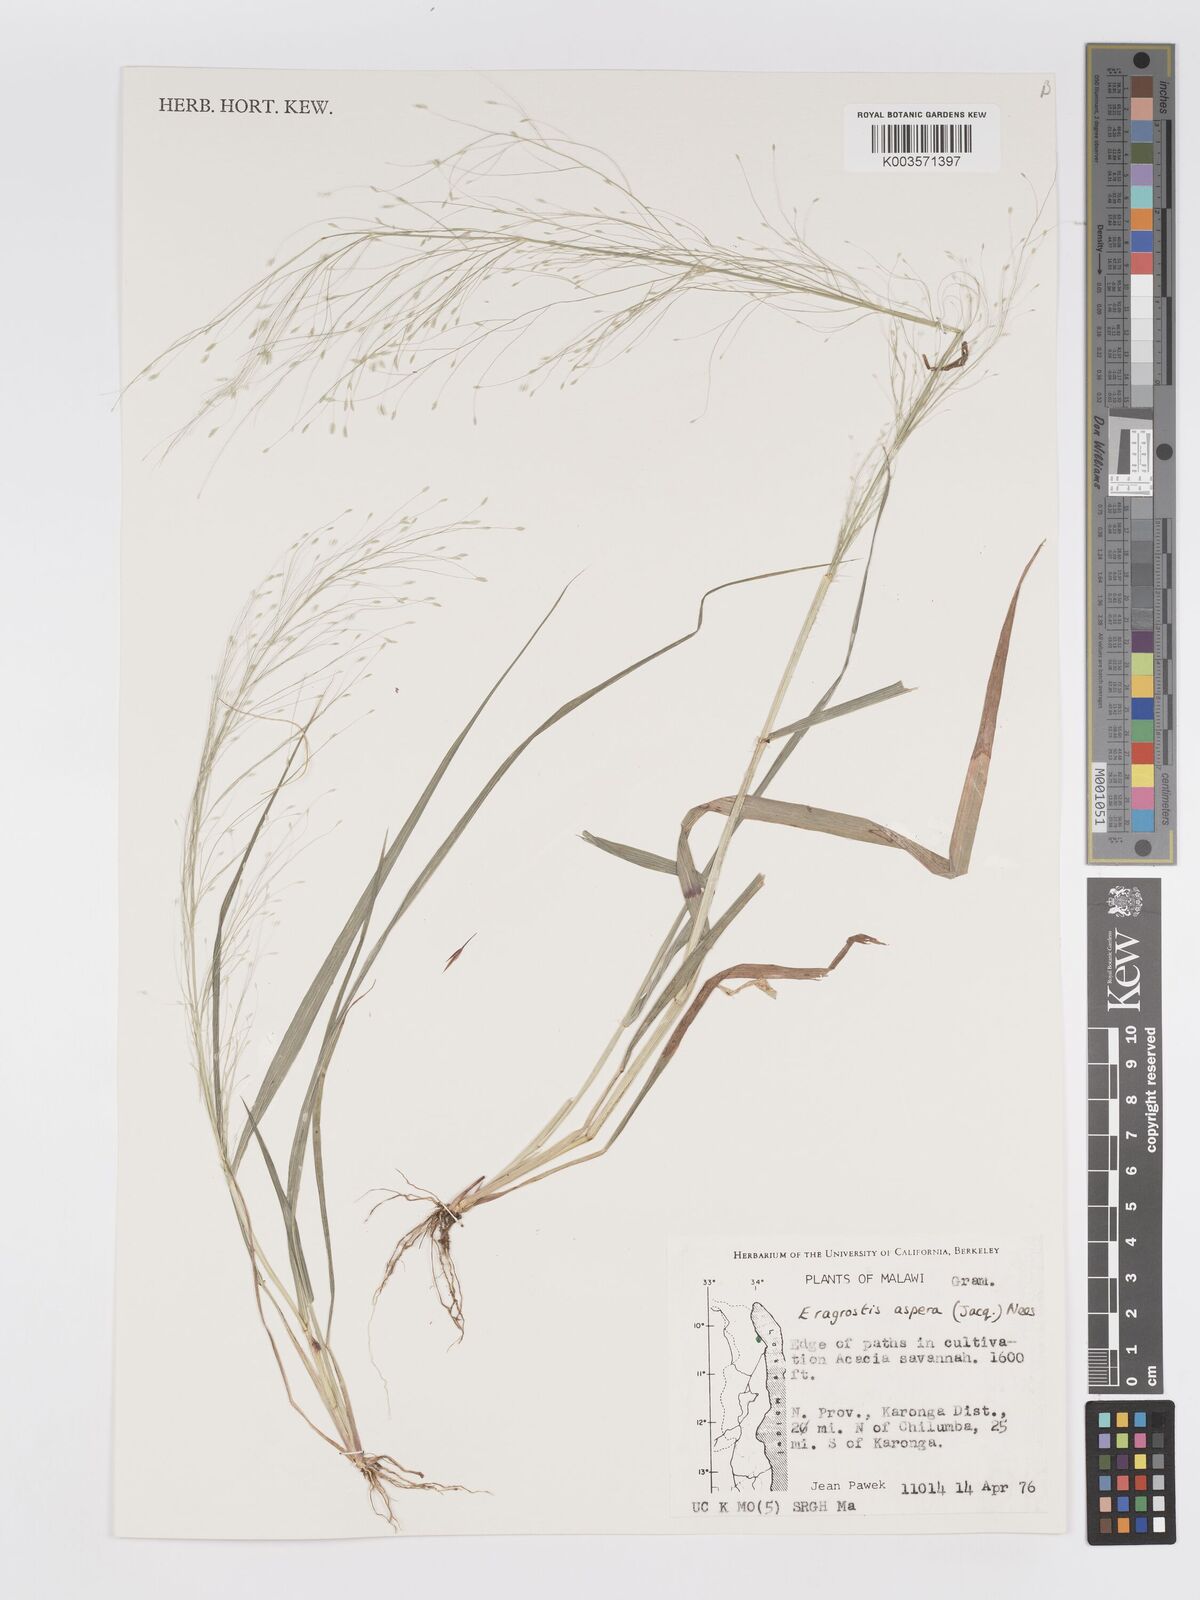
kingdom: Plantae
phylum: Tracheophyta
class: Liliopsida
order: Poales
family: Poaceae
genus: Eragrostis
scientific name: Eragrostis aspera
